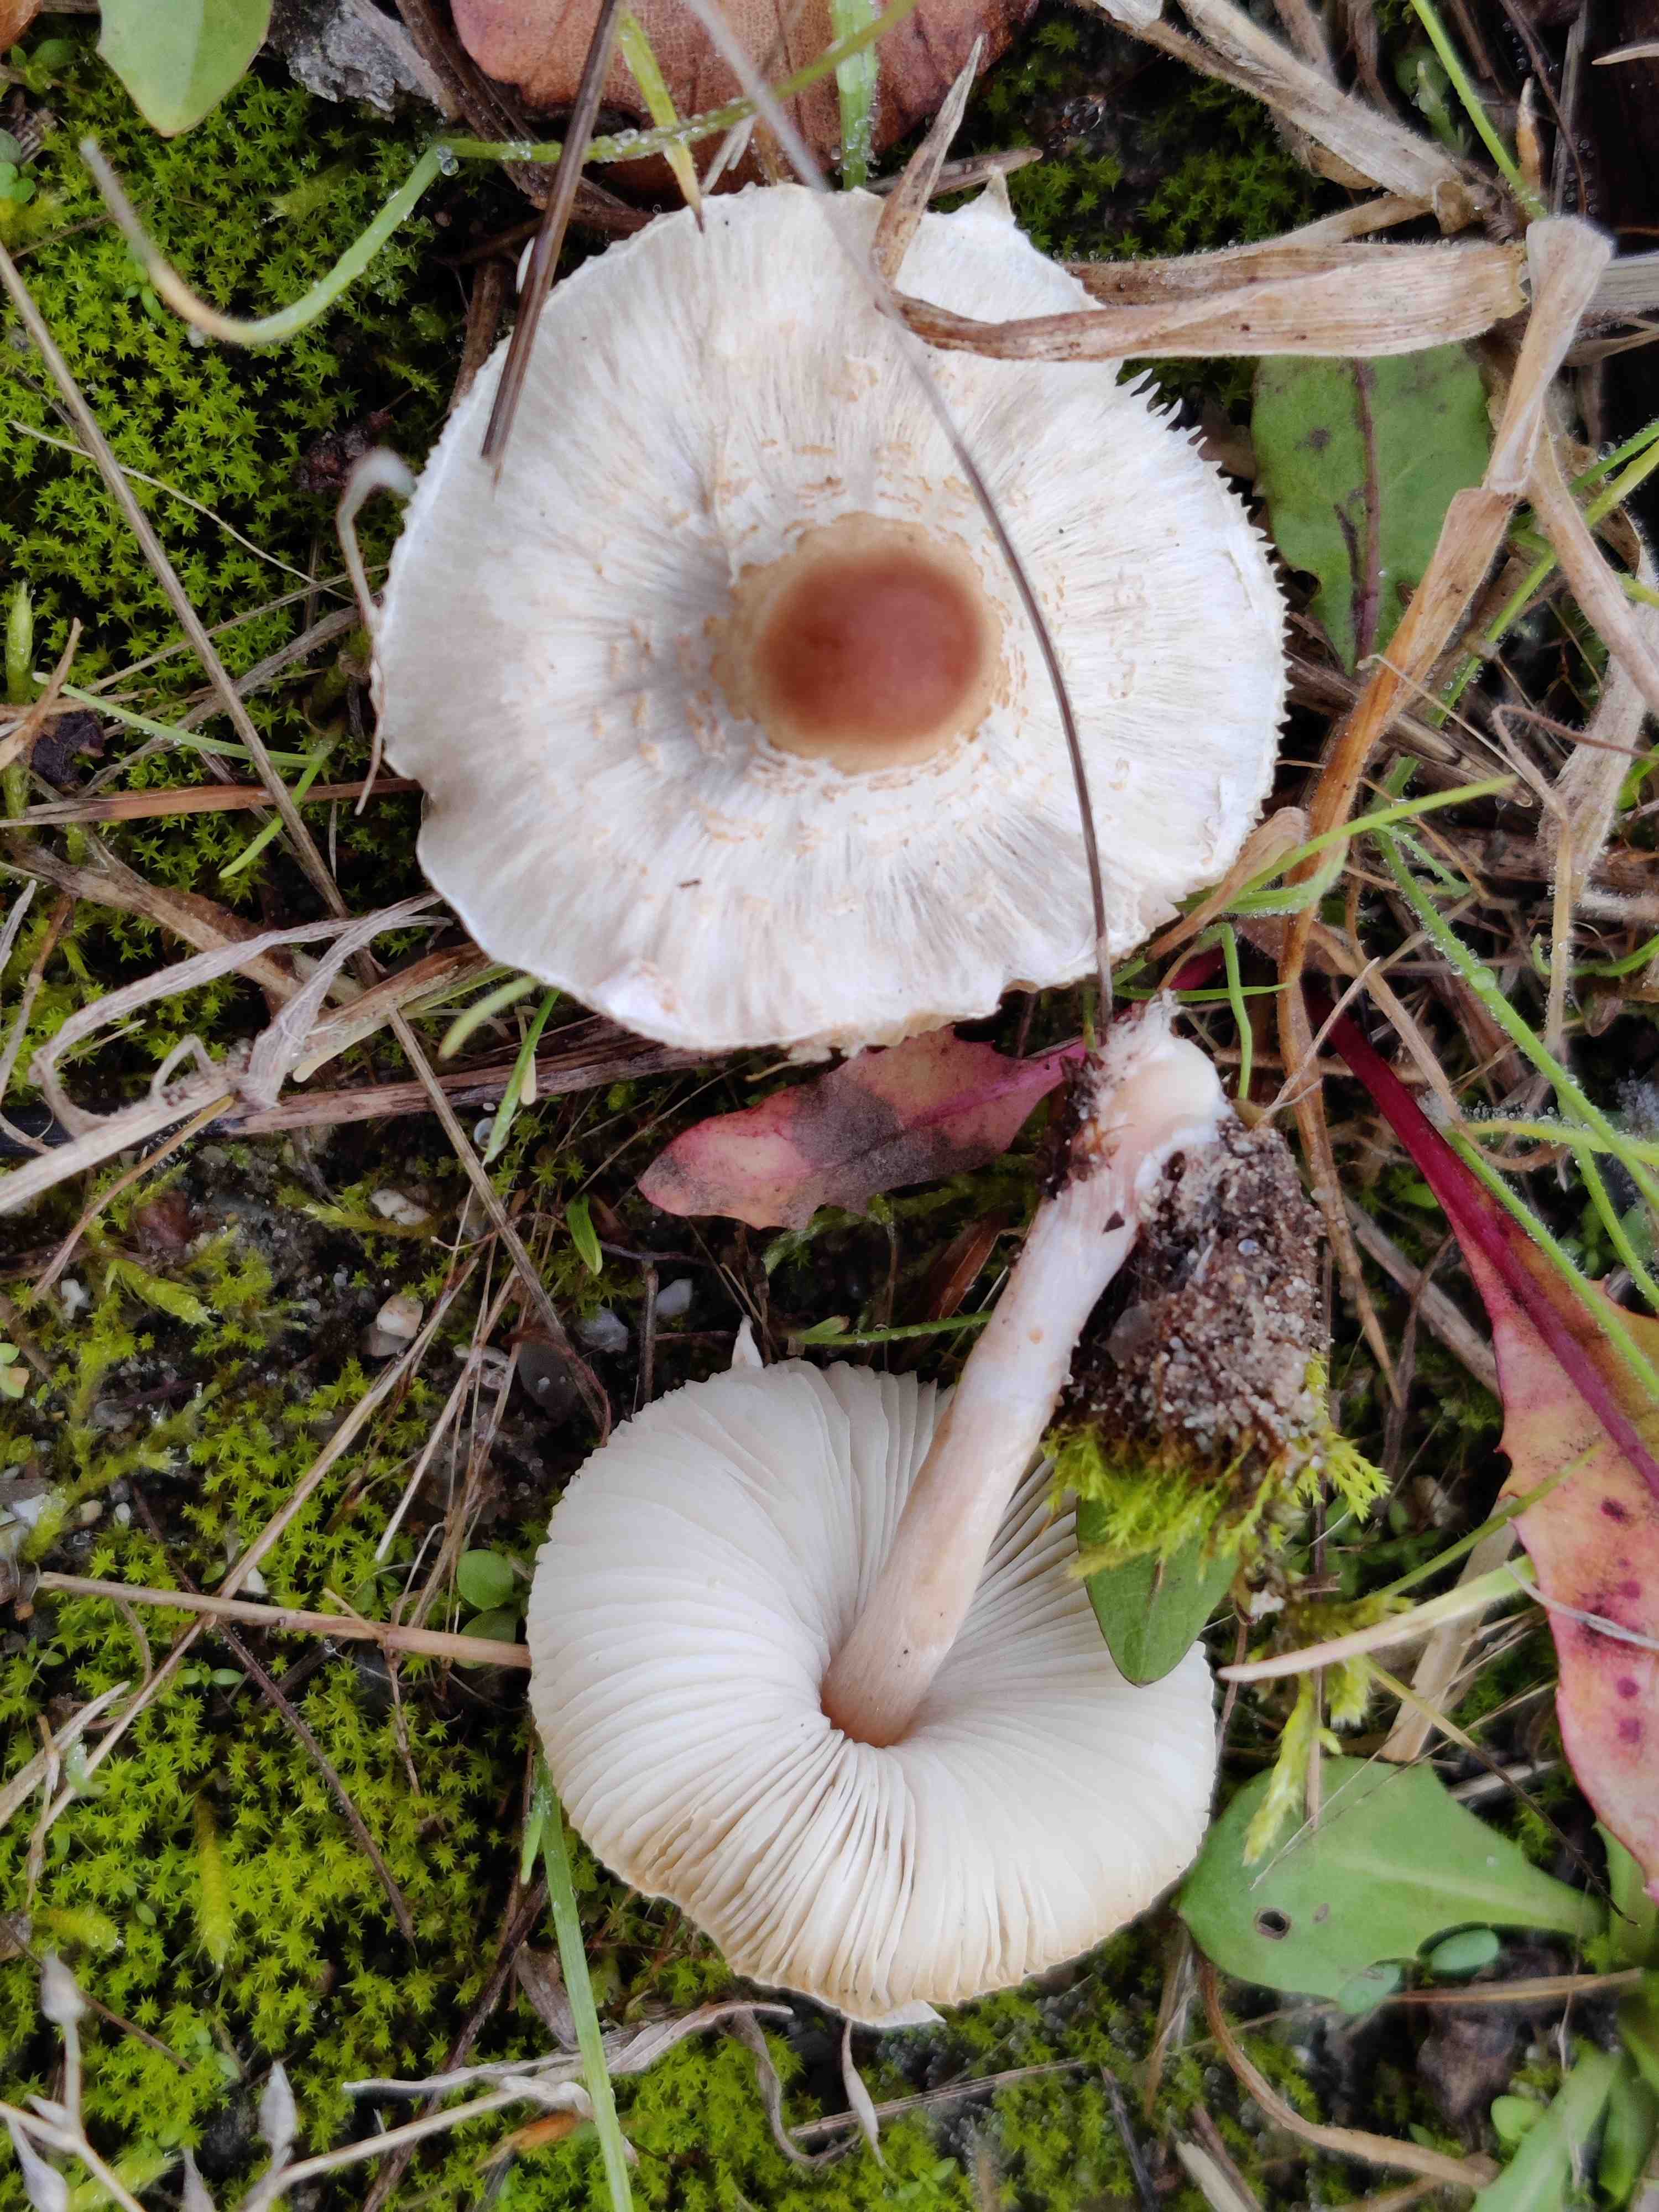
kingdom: Fungi
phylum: Basidiomycota
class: Agaricomycetes
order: Agaricales
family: Agaricaceae
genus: Lepiota
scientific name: Lepiota cristata
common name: stinkende parasolhat
